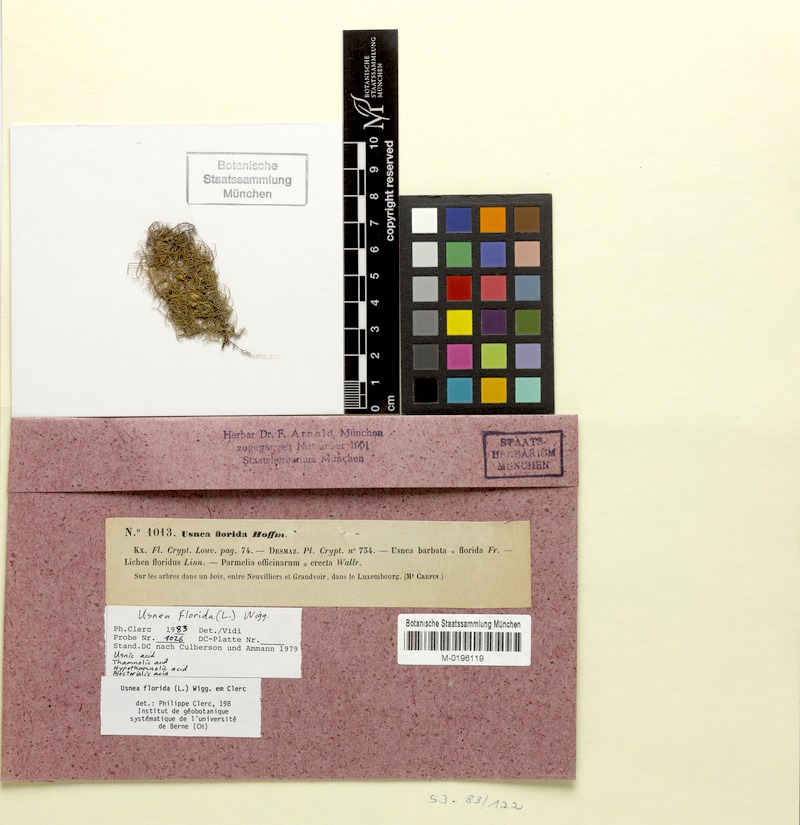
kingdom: Fungi
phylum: Ascomycota
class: Lecanoromycetes
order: Lecanorales
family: Parmeliaceae
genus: Usnea
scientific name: Usnea florida
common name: Witches' whiskers lichen
